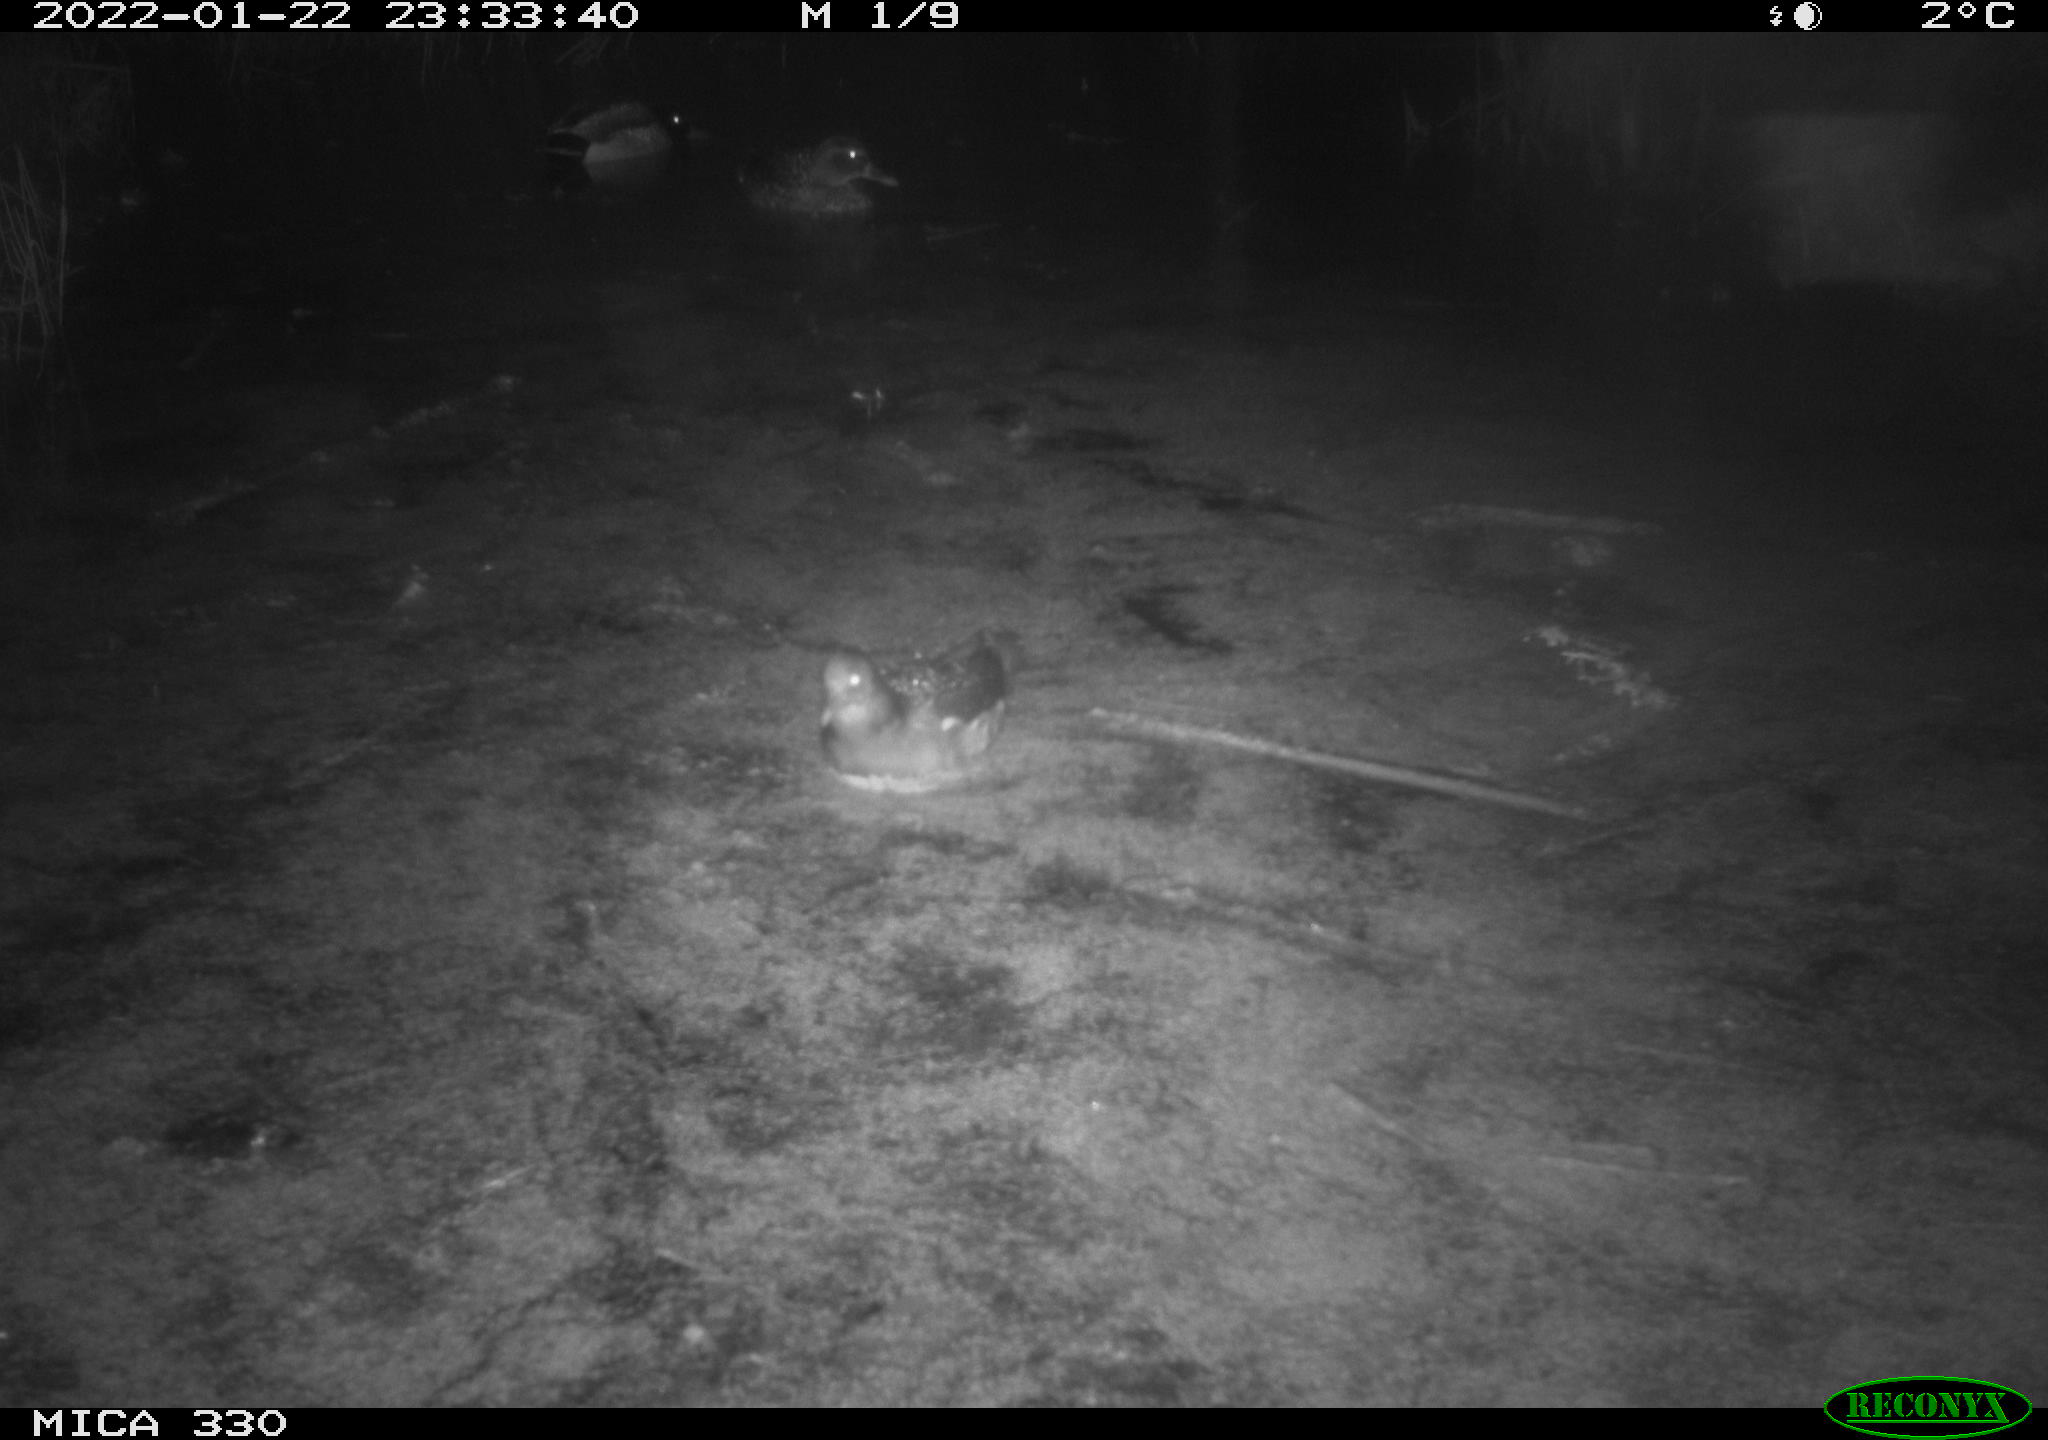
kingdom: Animalia
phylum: Chordata
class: Aves
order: Gruiformes
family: Rallidae
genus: Gallinula
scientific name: Gallinula chloropus
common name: Common moorhen
